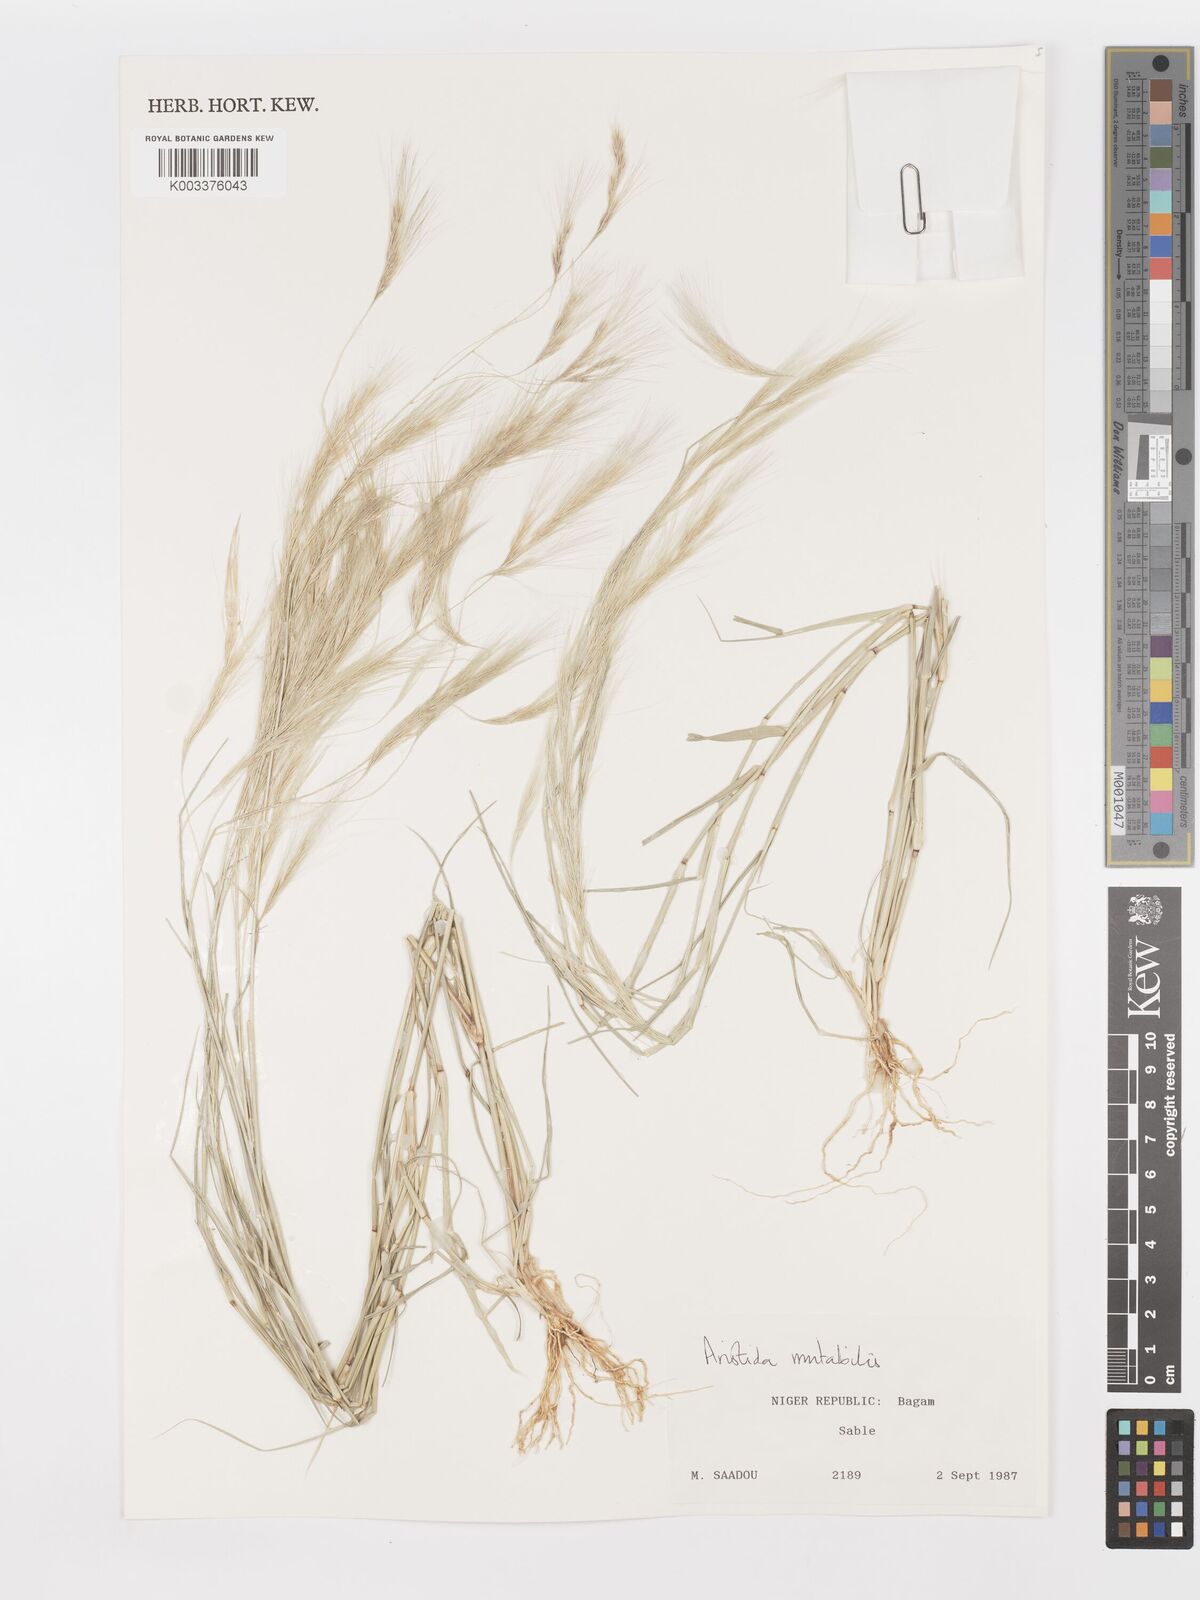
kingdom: Plantae
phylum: Tracheophyta
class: Liliopsida
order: Poales
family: Poaceae
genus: Aristida
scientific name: Aristida mutabilis
